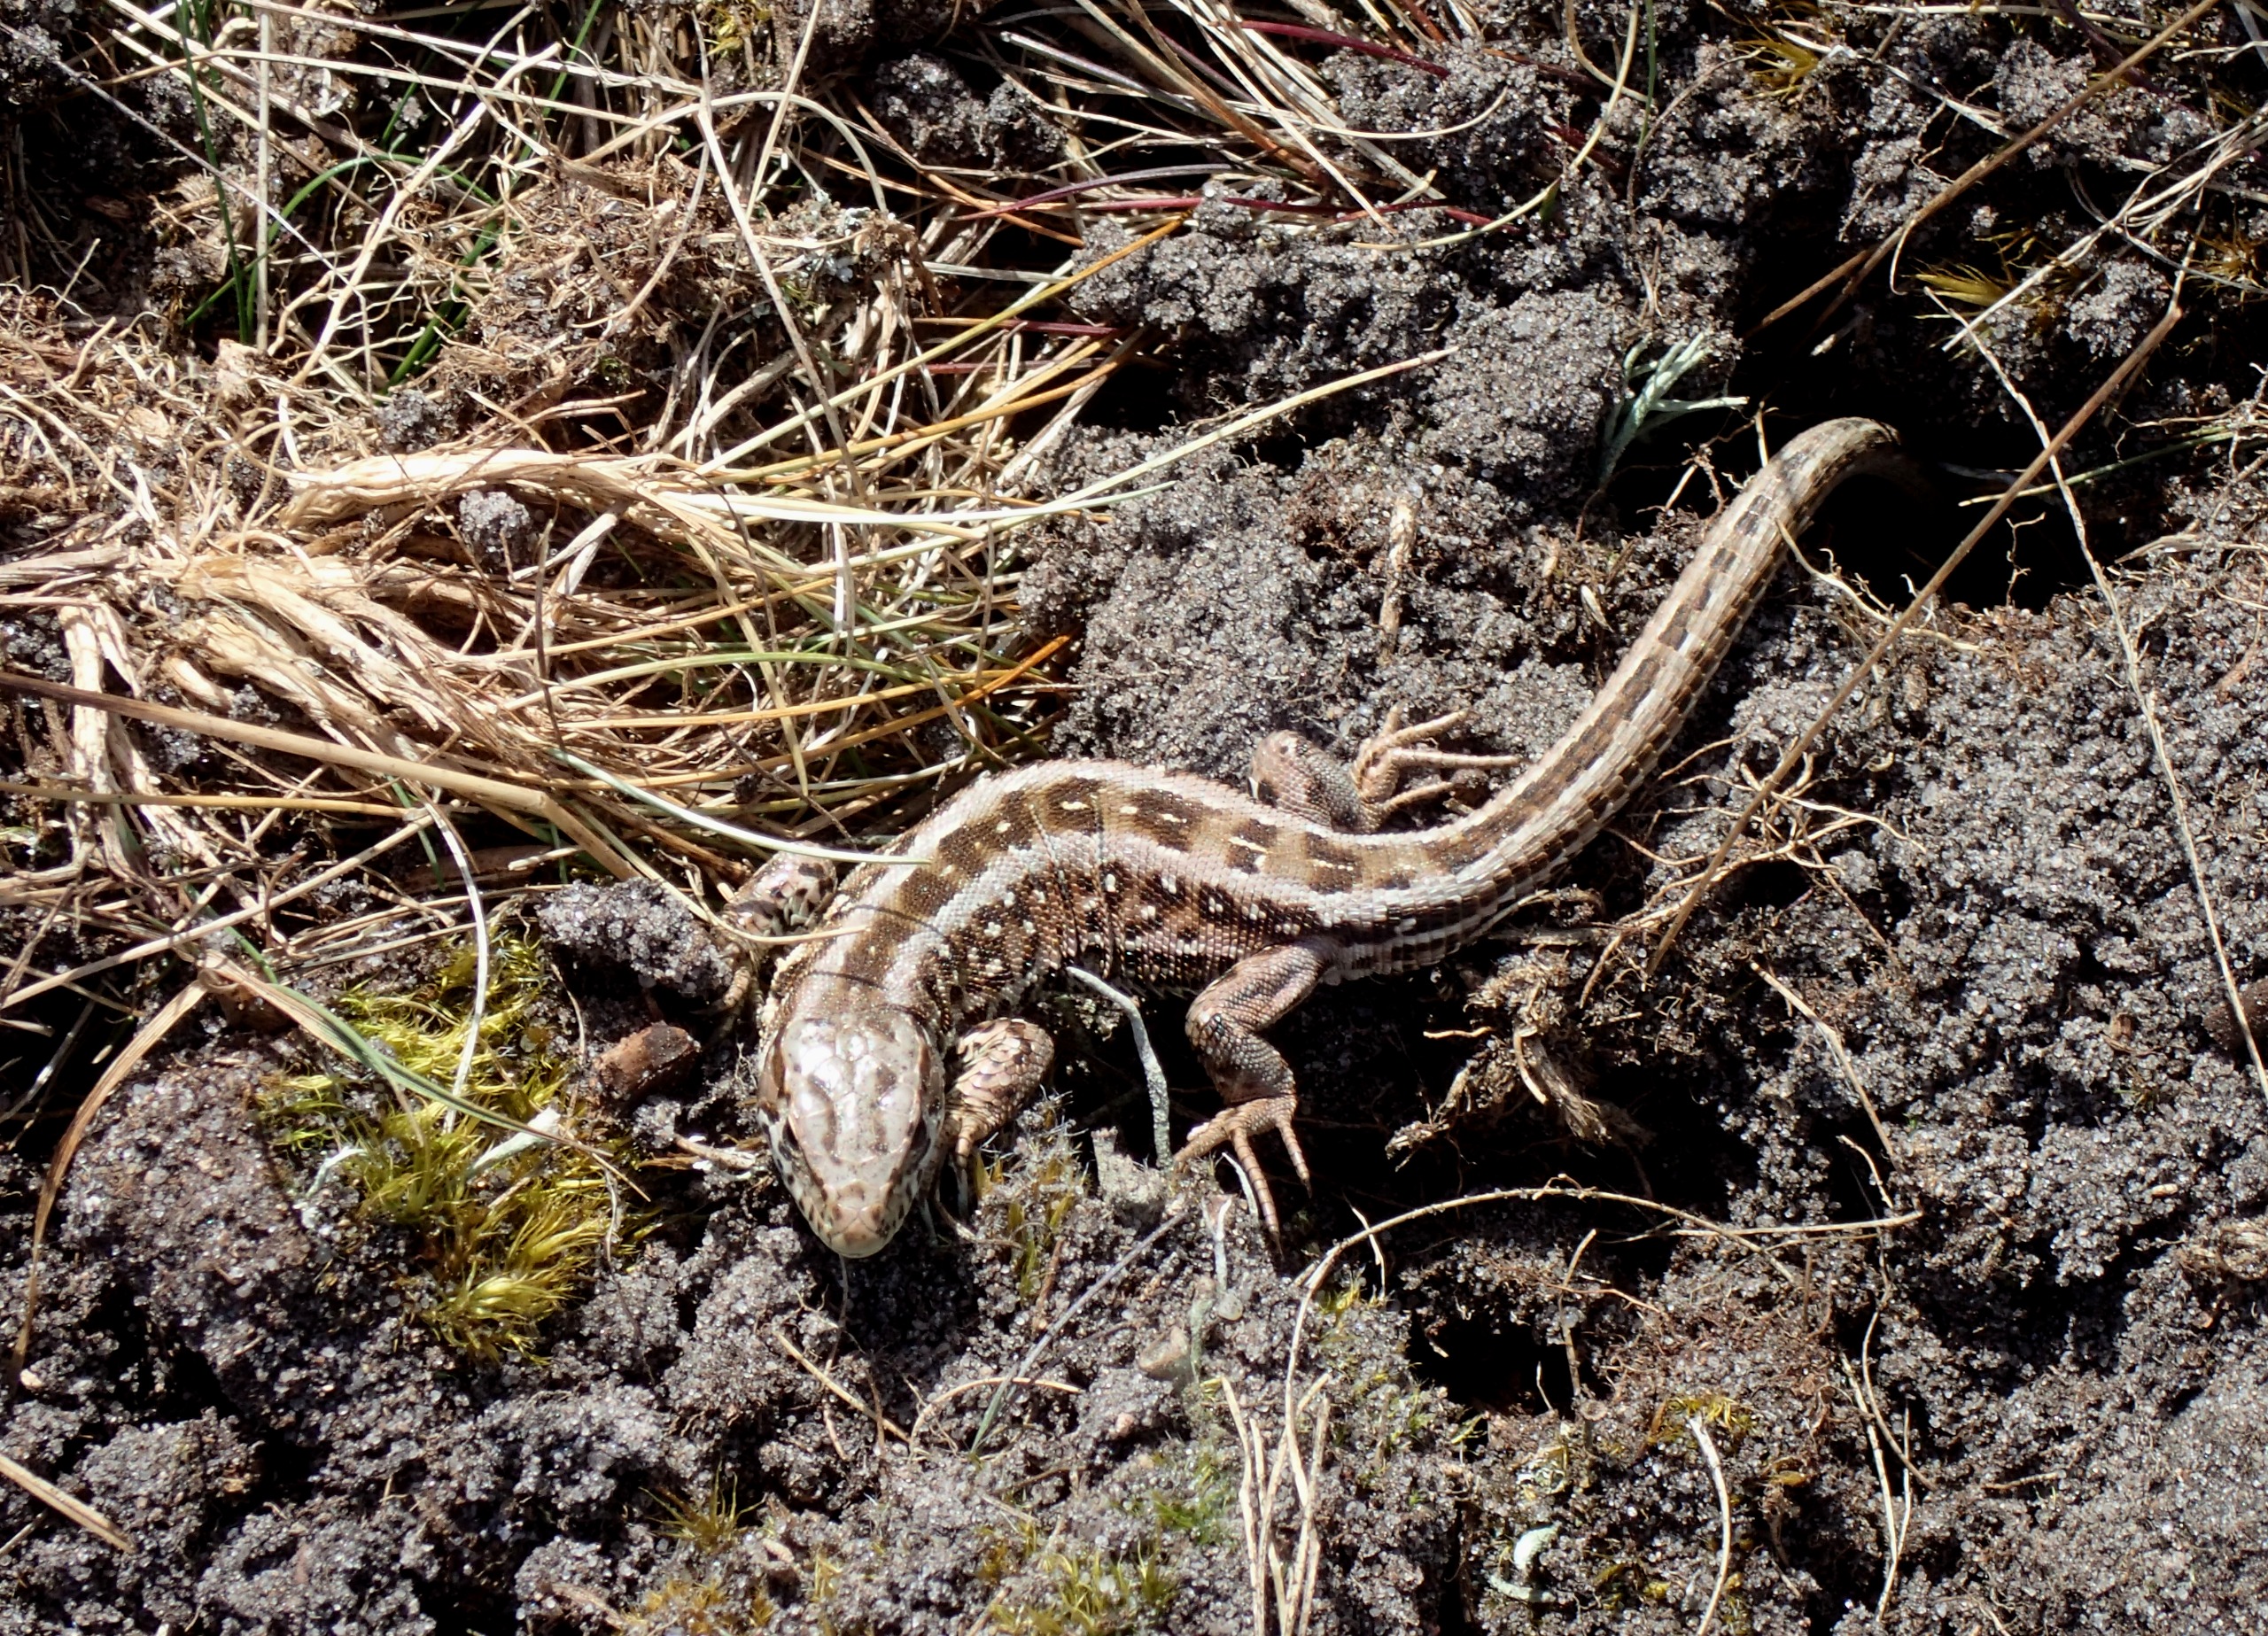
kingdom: Animalia
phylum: Chordata
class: Squamata
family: Lacertidae
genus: Lacerta
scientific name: Lacerta agilis
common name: Markfirben
